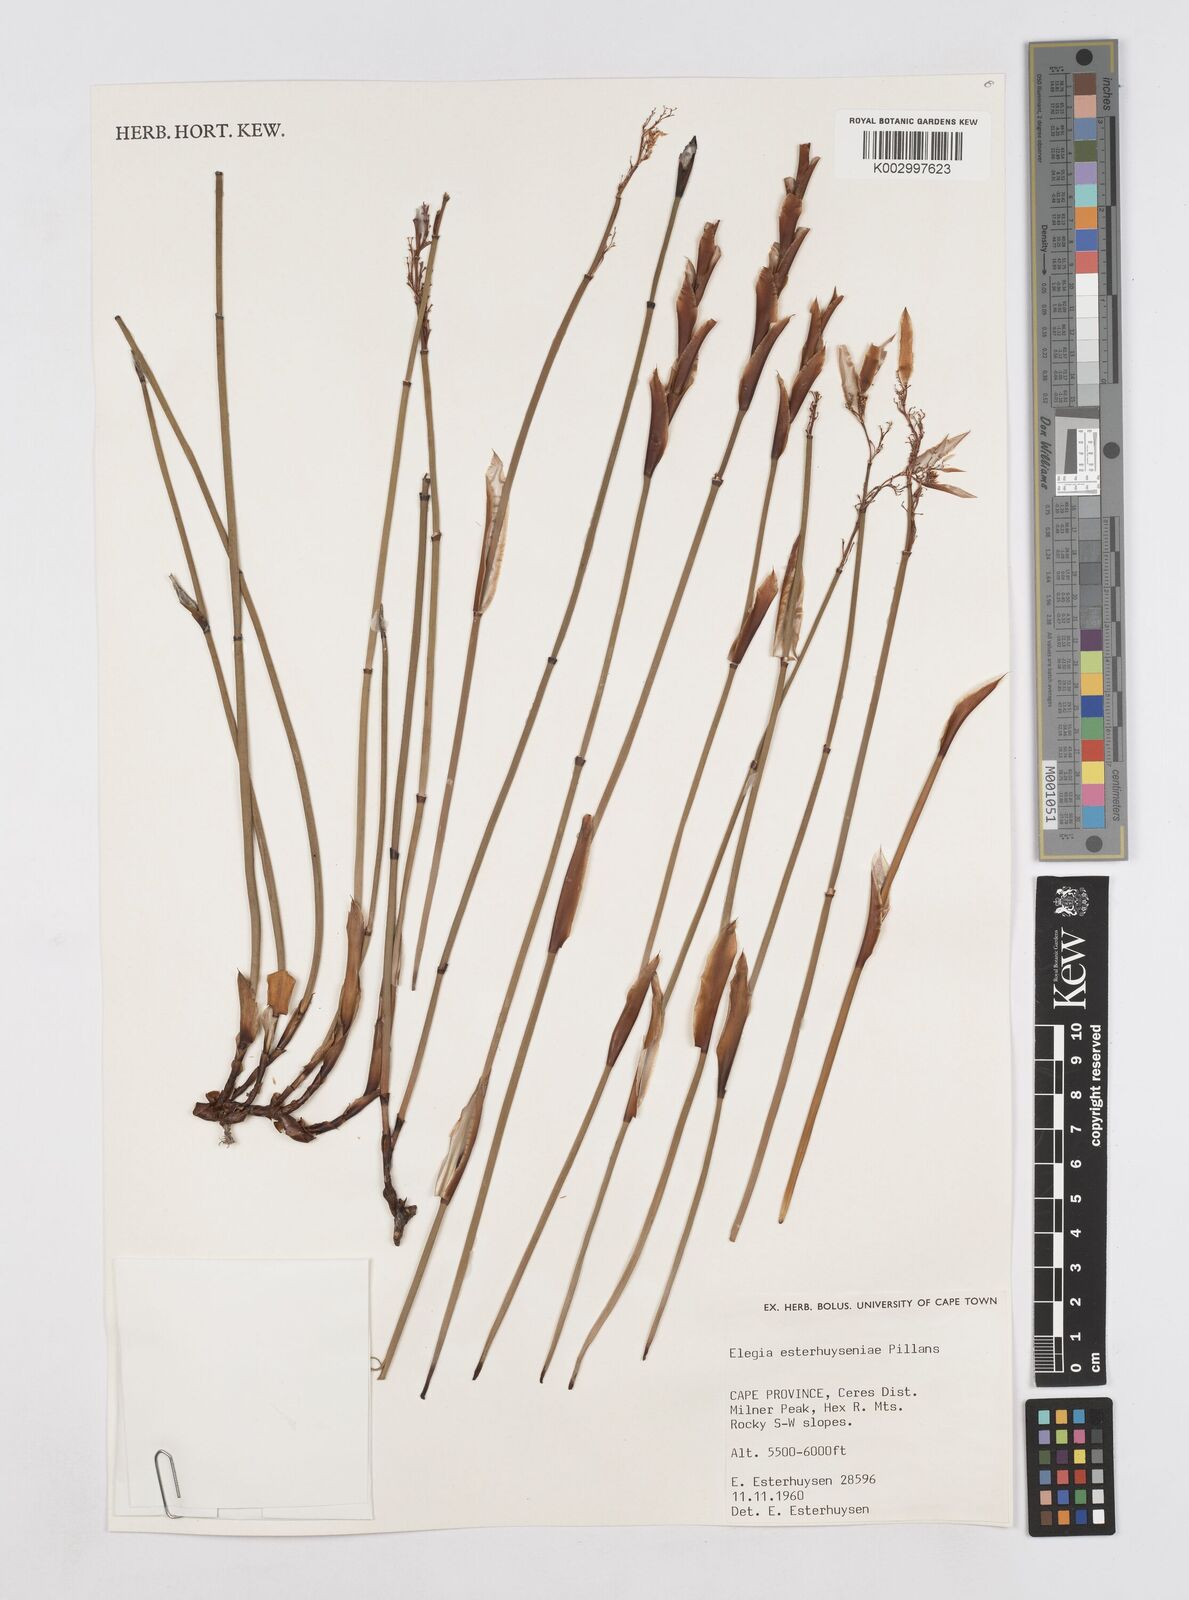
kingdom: Plantae
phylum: Tracheophyta
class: Liliopsida
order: Poales
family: Restionaceae
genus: Elegia
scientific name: Elegia esterhuyseniae
